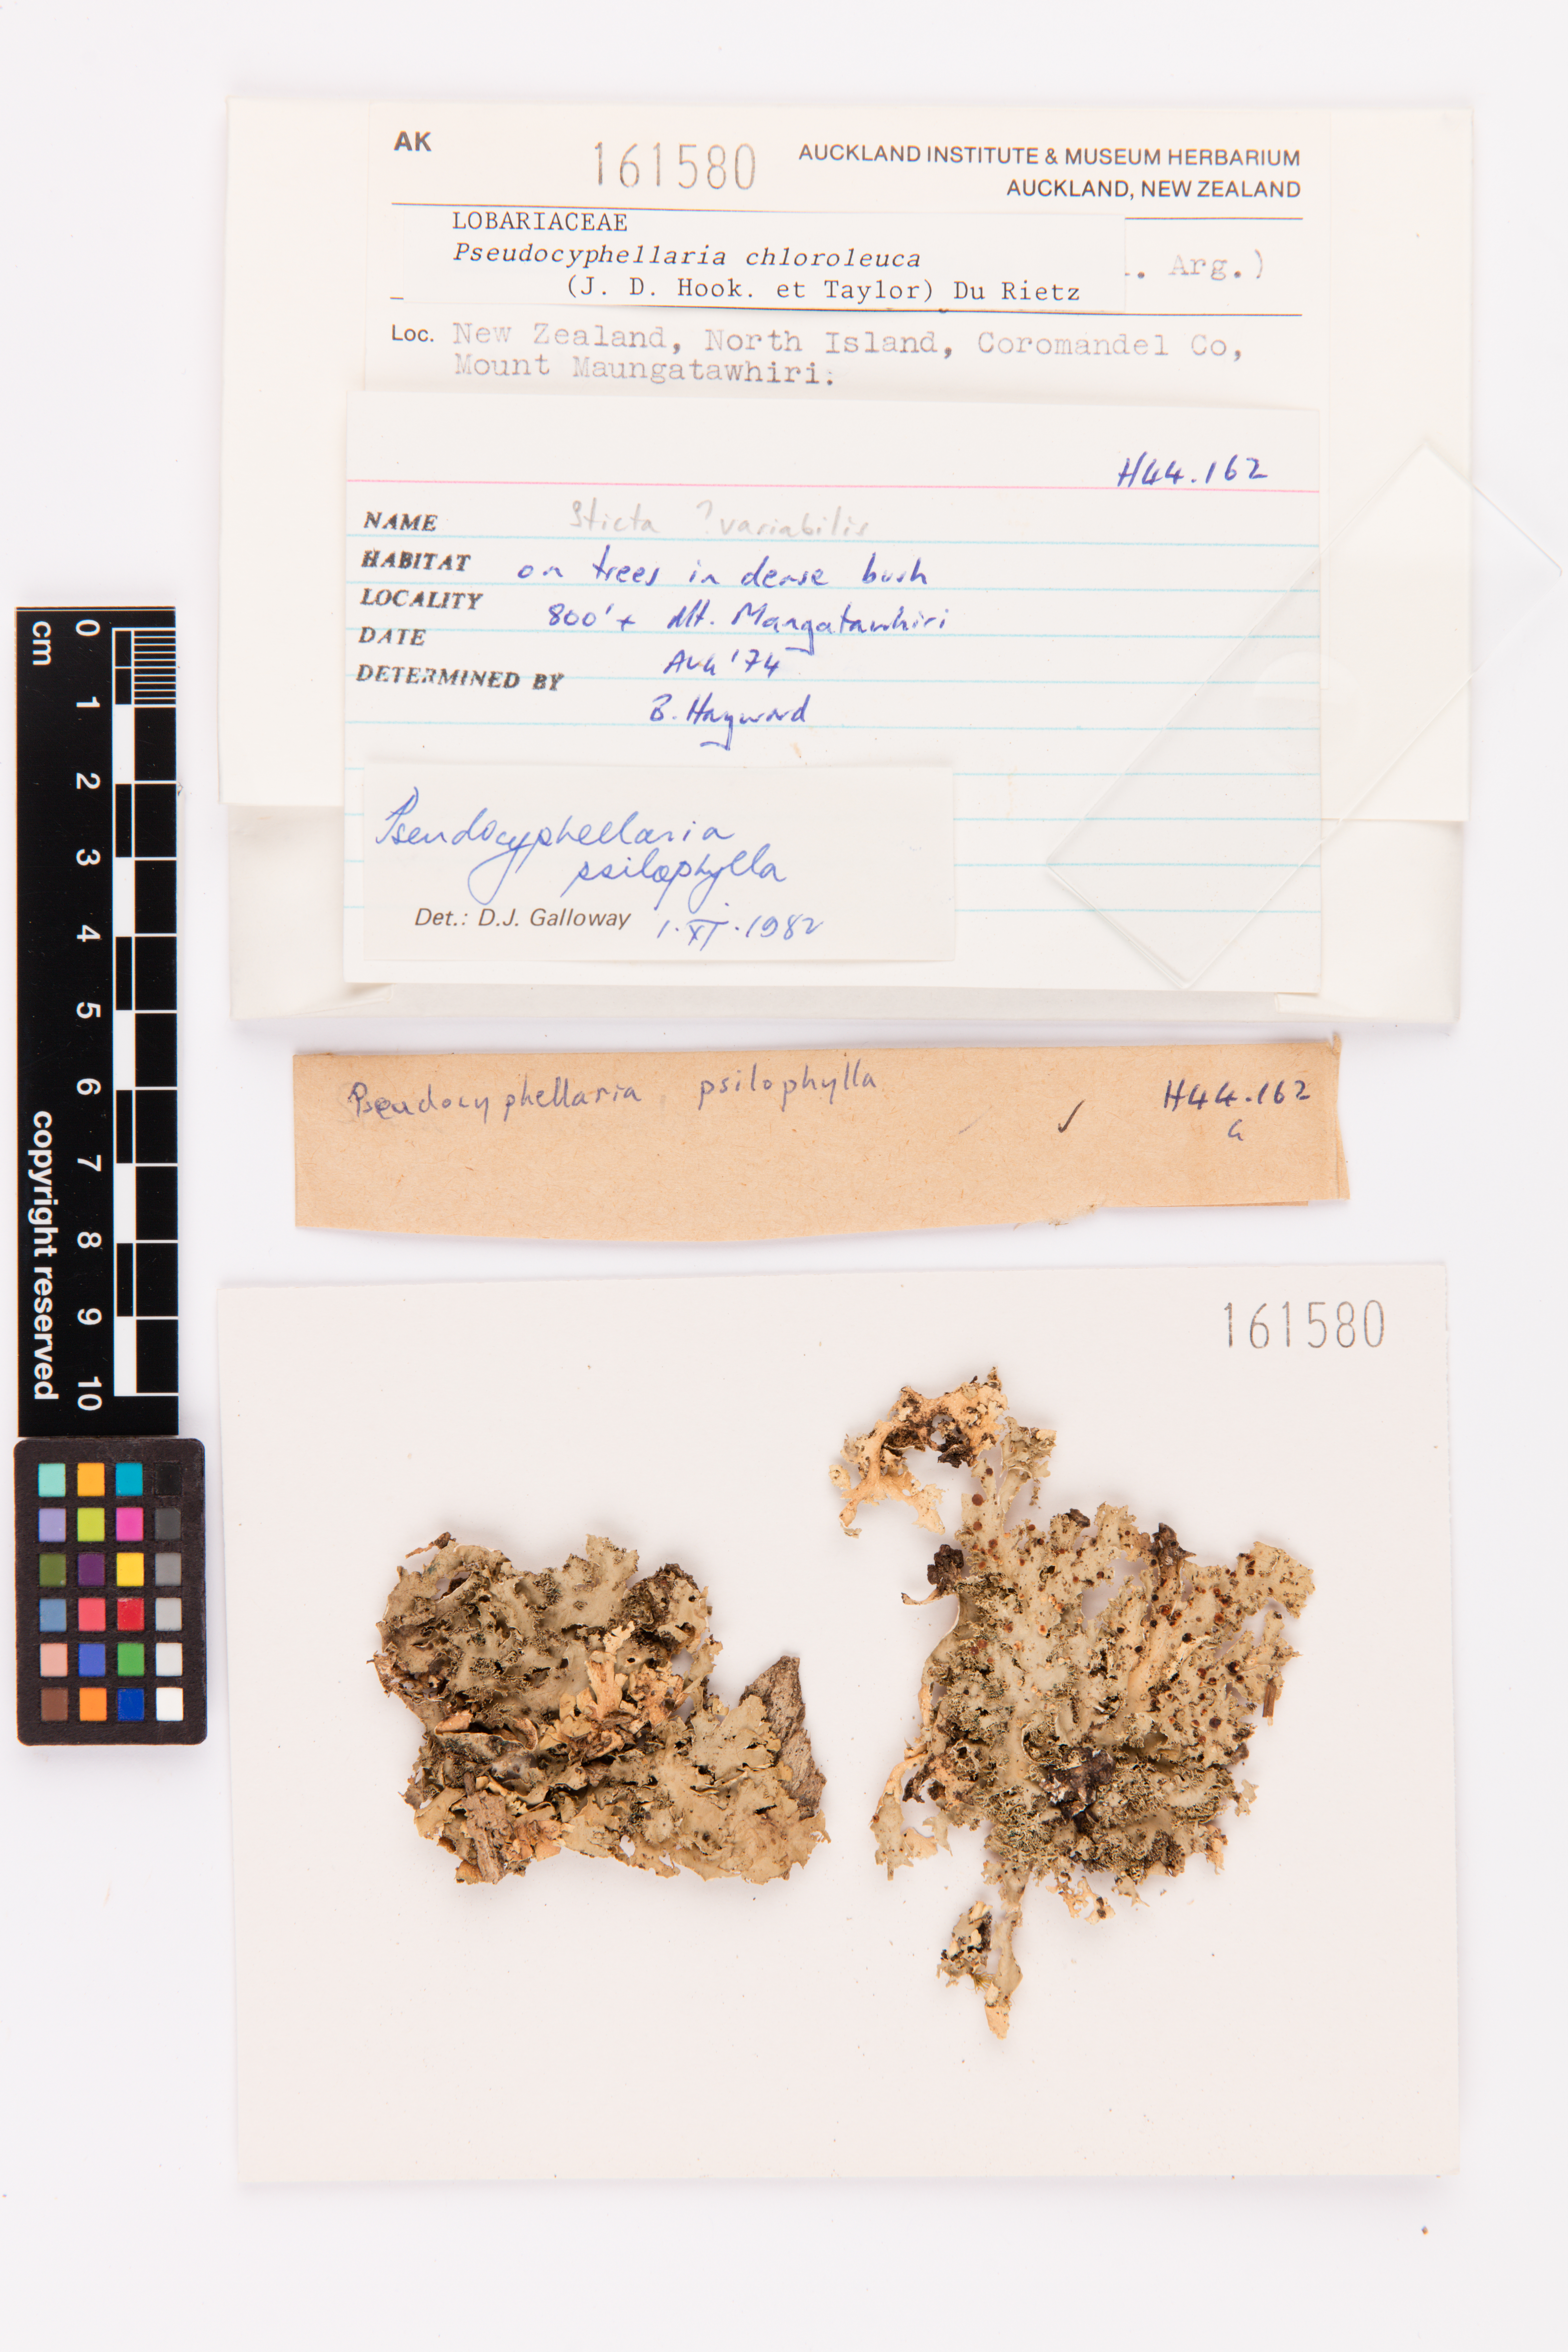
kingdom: Fungi
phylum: Ascomycota
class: Lecanoromycetes
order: Peltigerales
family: Lobariaceae
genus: Pseudocyphellaria
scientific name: Pseudocyphellaria chloroleuca
